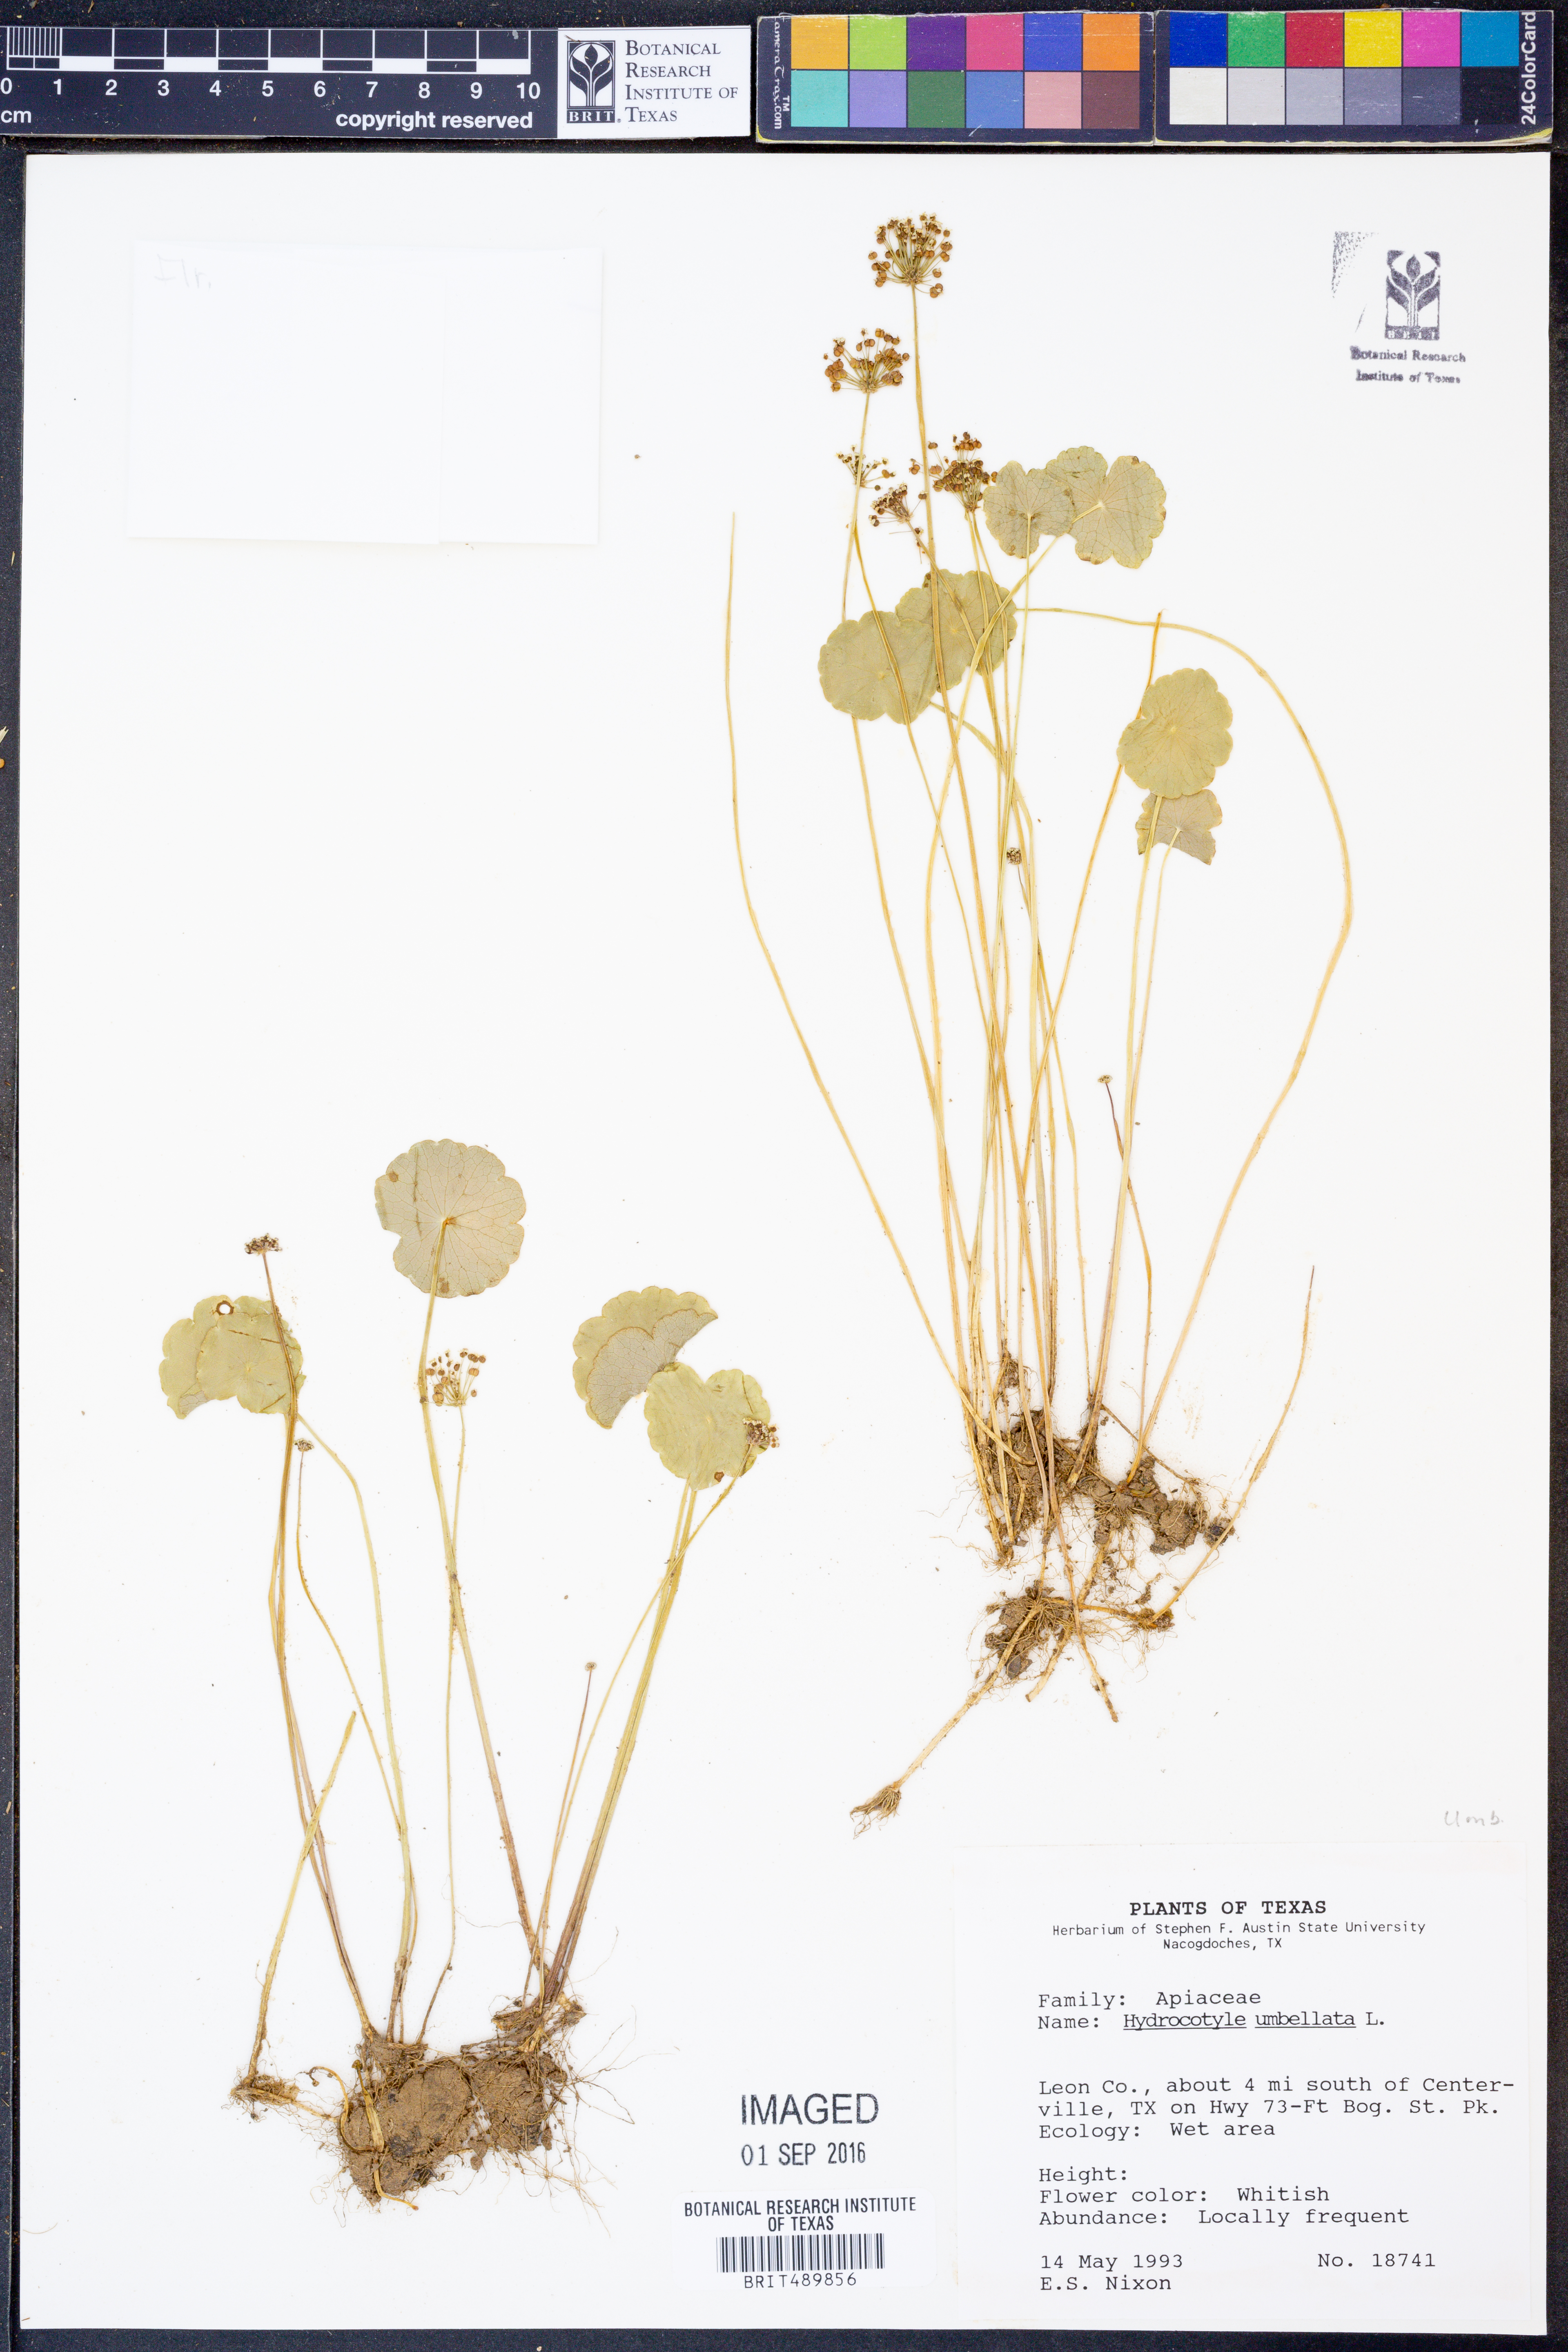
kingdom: Plantae
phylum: Tracheophyta
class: Magnoliopsida
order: Apiales
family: Araliaceae
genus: Hydrocotyle
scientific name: Hydrocotyle umbellata
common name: Water pennywort
